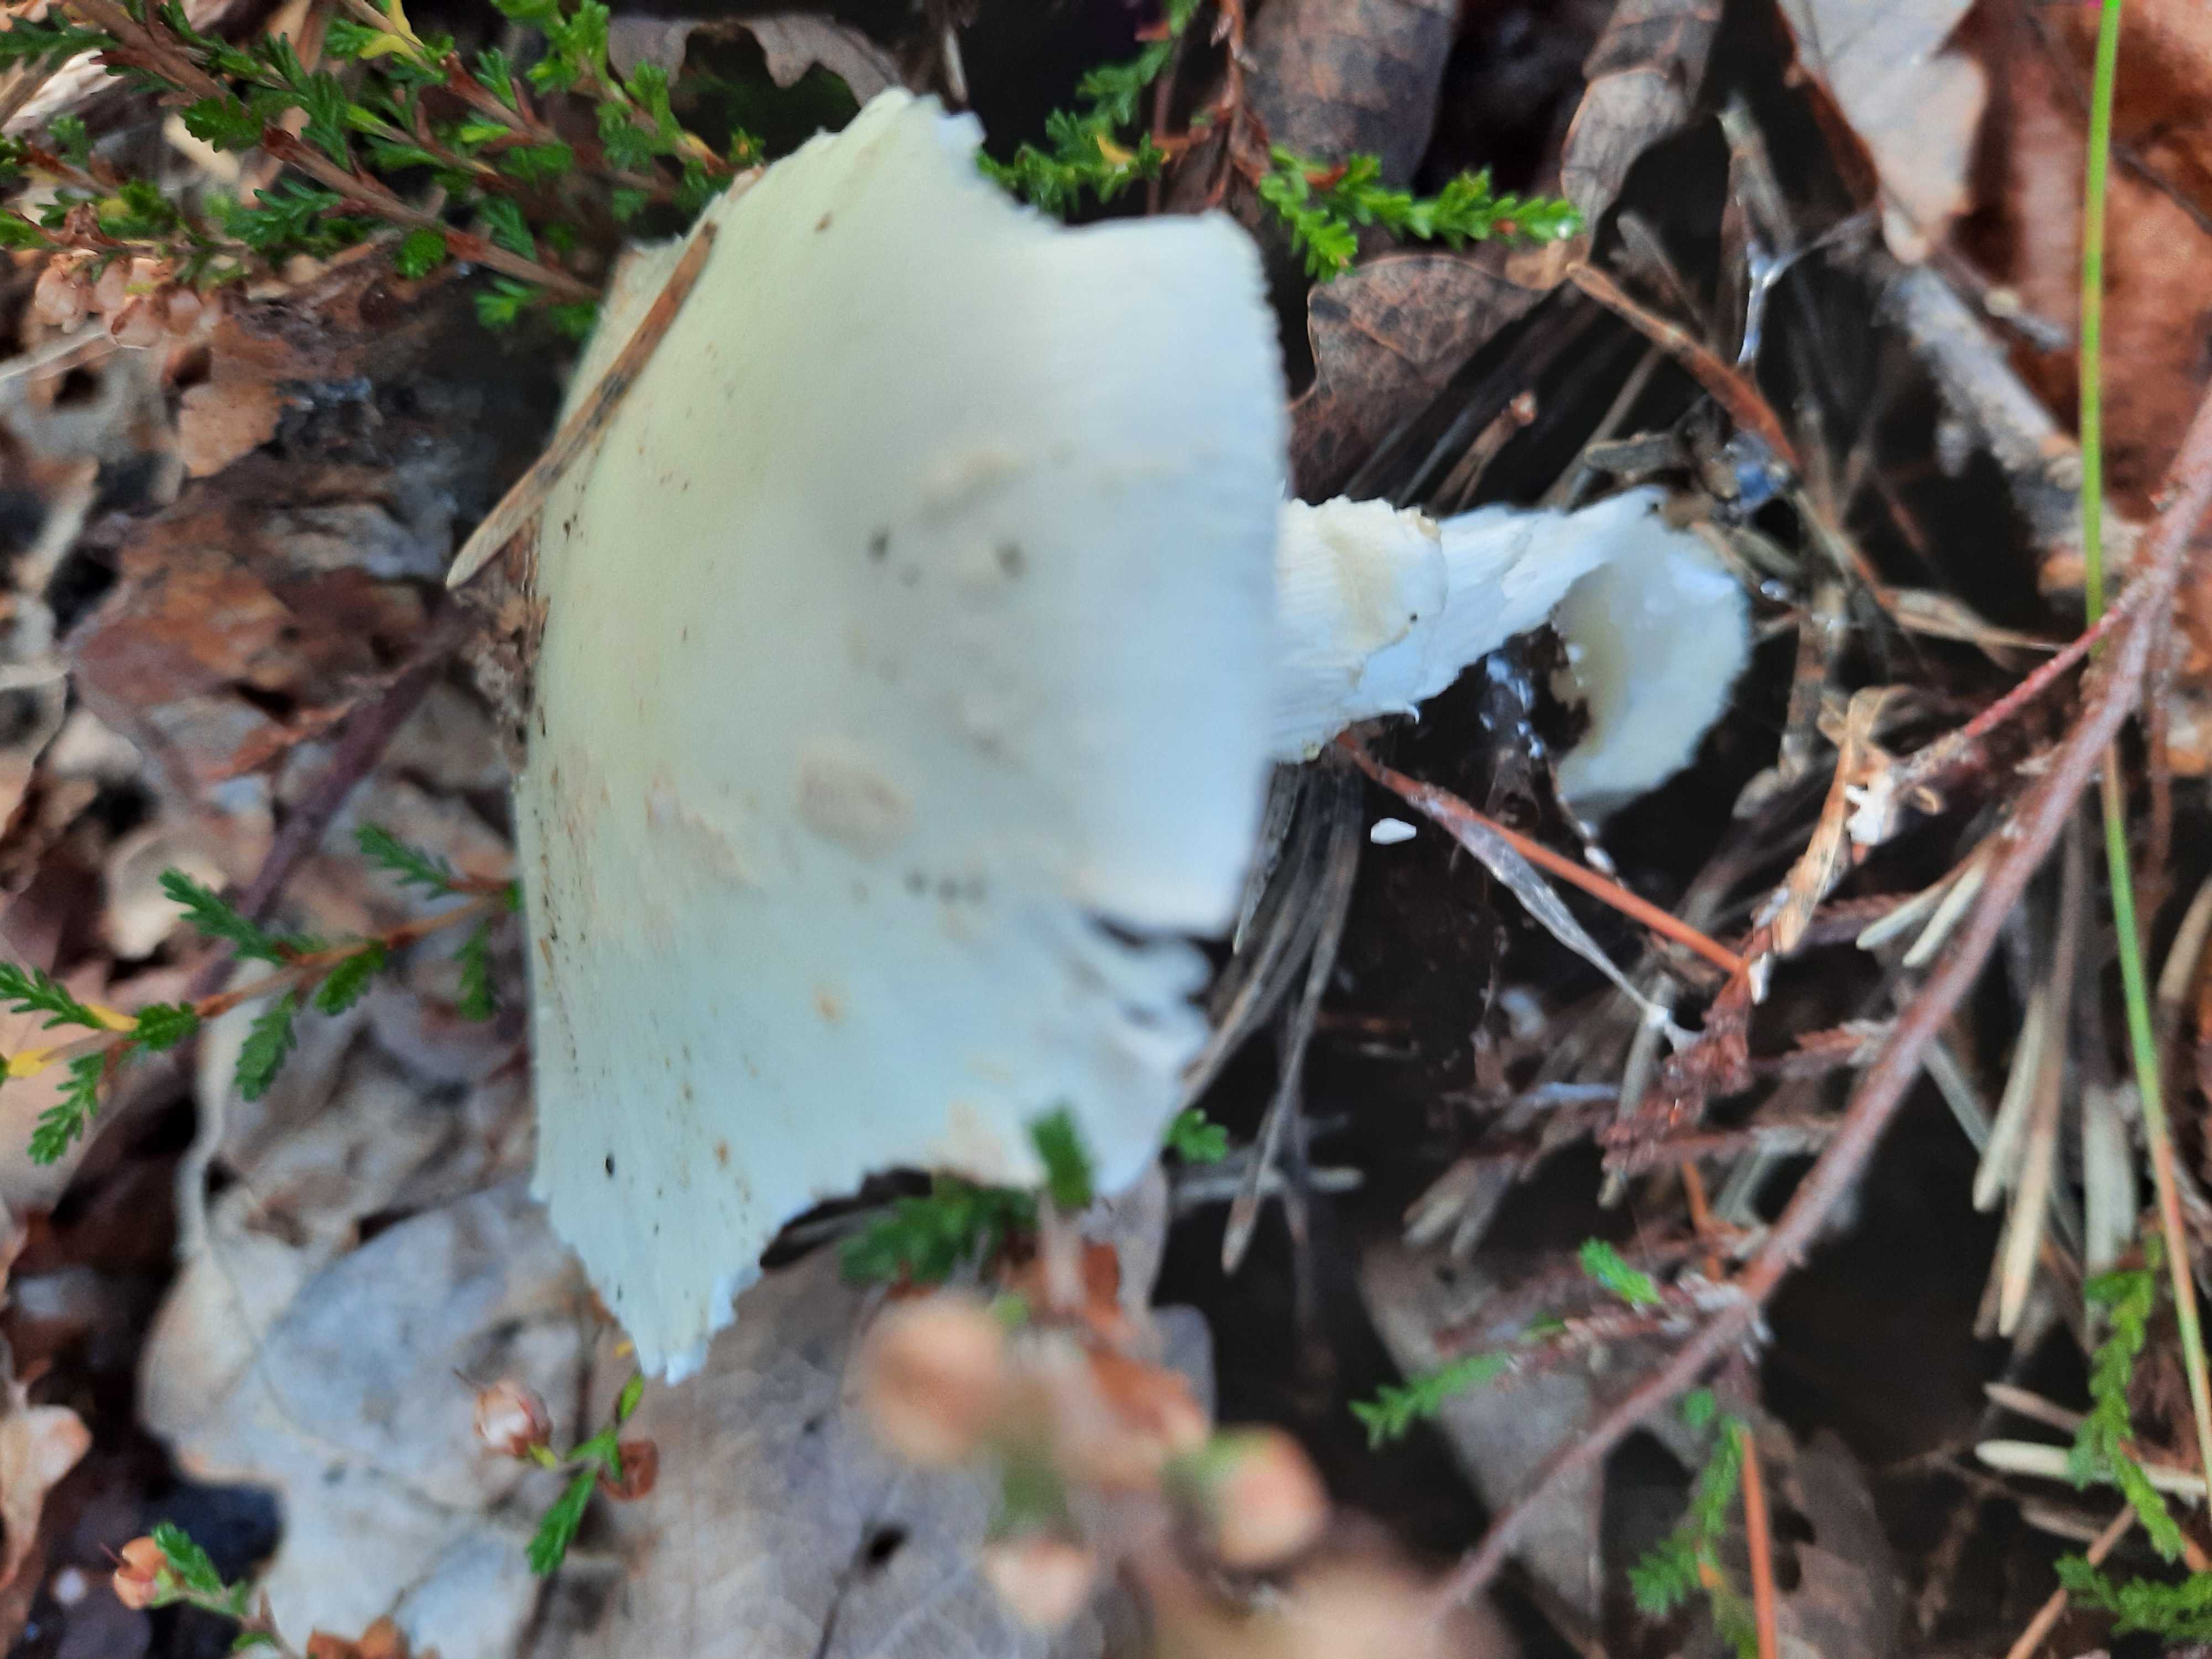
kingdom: Fungi
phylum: Basidiomycota
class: Agaricomycetes
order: Agaricales
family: Amanitaceae
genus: Amanita
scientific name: Amanita citrina
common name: kugleknoldet fluesvamp
